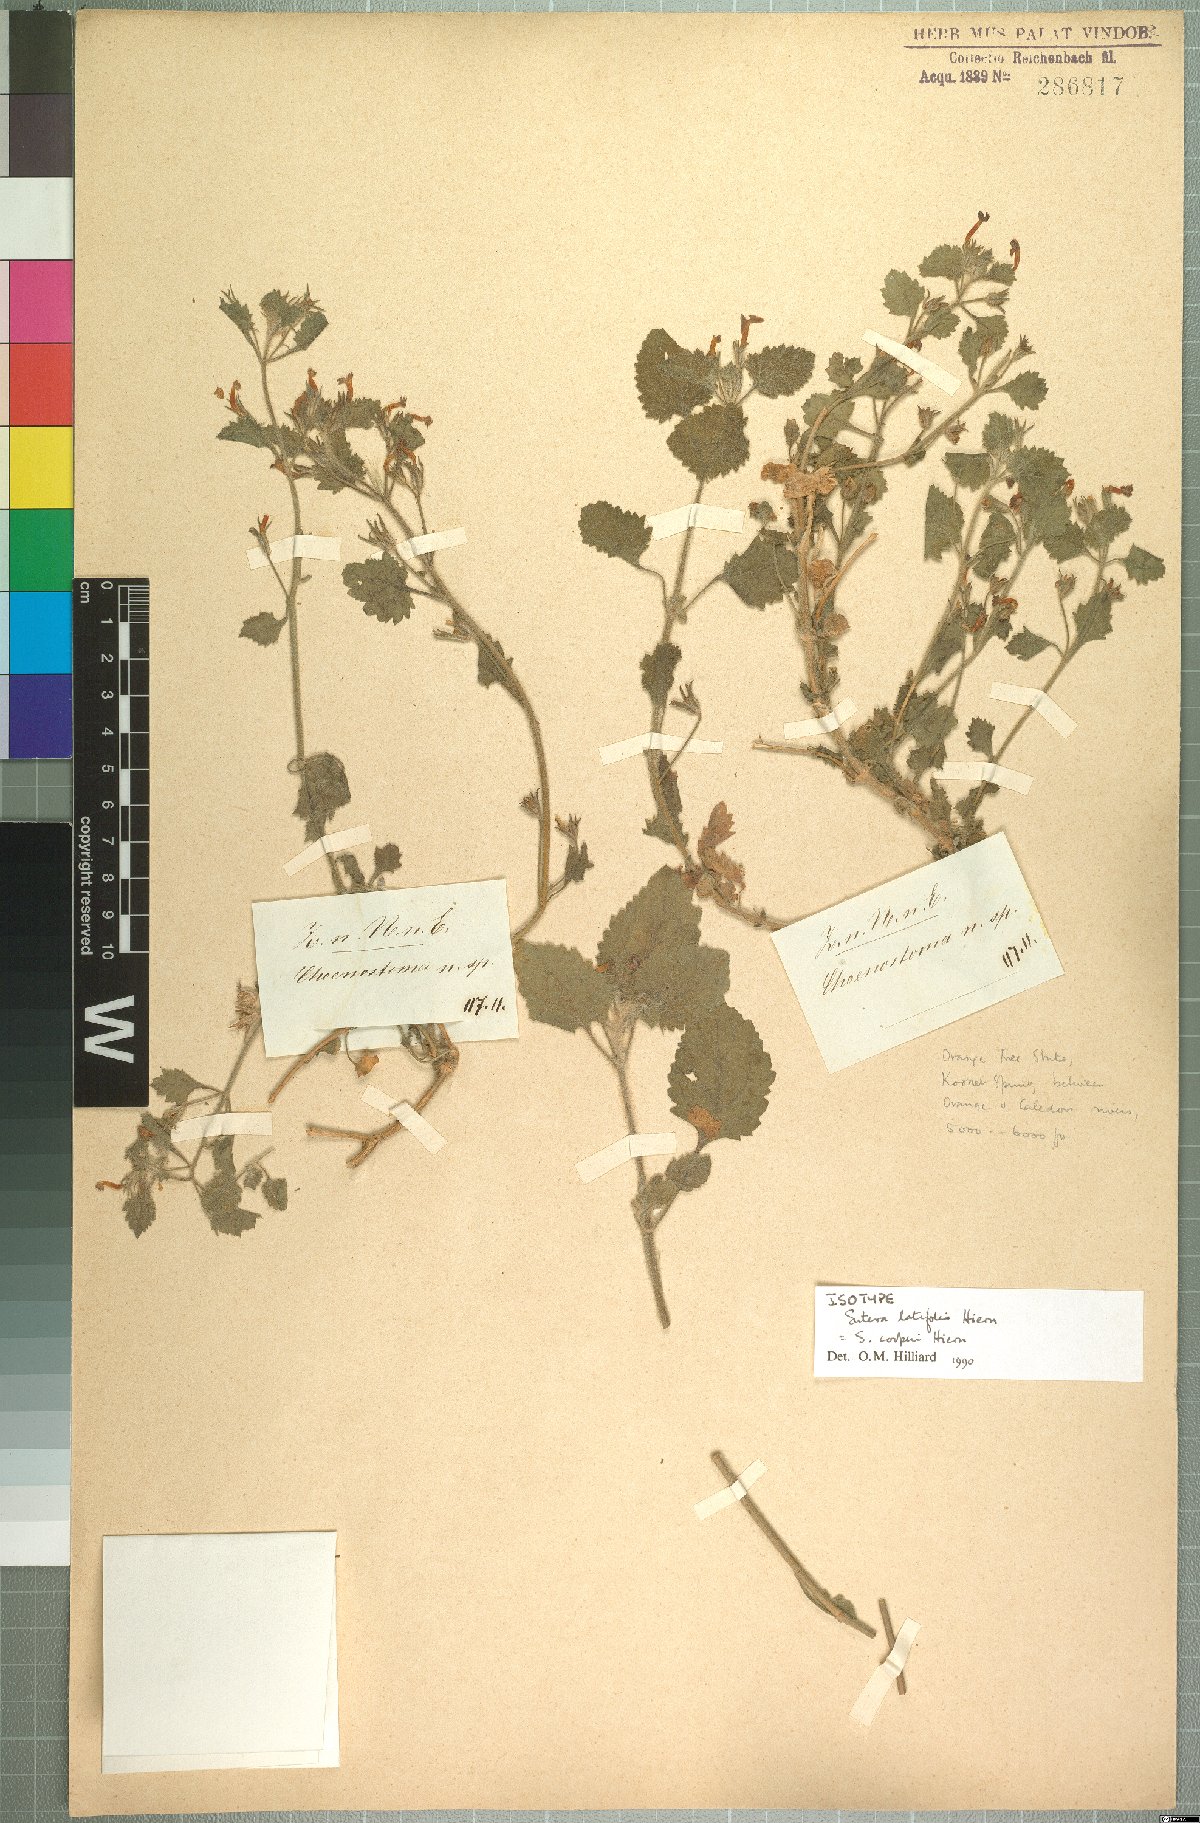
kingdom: Plantae
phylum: Tracheophyta
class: Magnoliopsida
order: Lamiales
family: Scrophulariaceae
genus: Sutera
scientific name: Sutera cooperi
